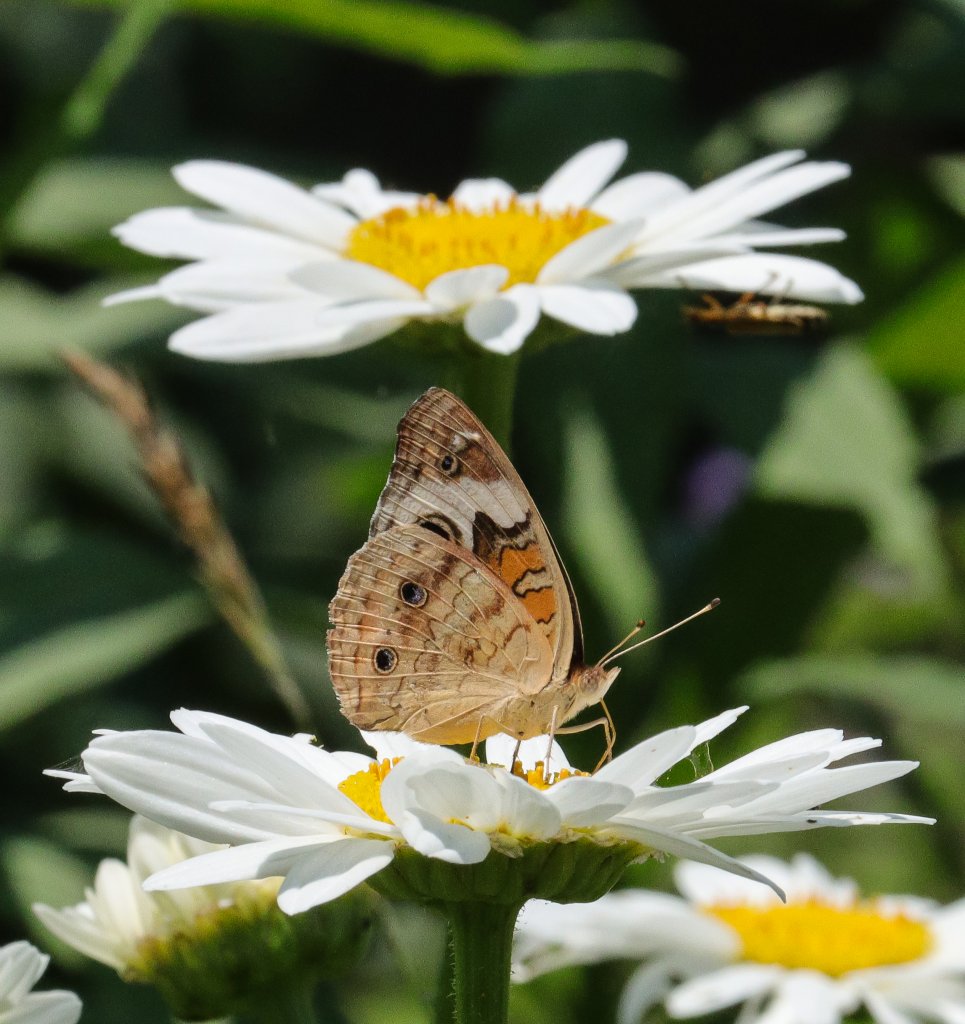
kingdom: Animalia
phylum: Arthropoda
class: Insecta
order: Lepidoptera
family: Nymphalidae
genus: Junonia
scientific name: Junonia coenia
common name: Common Buckeye
